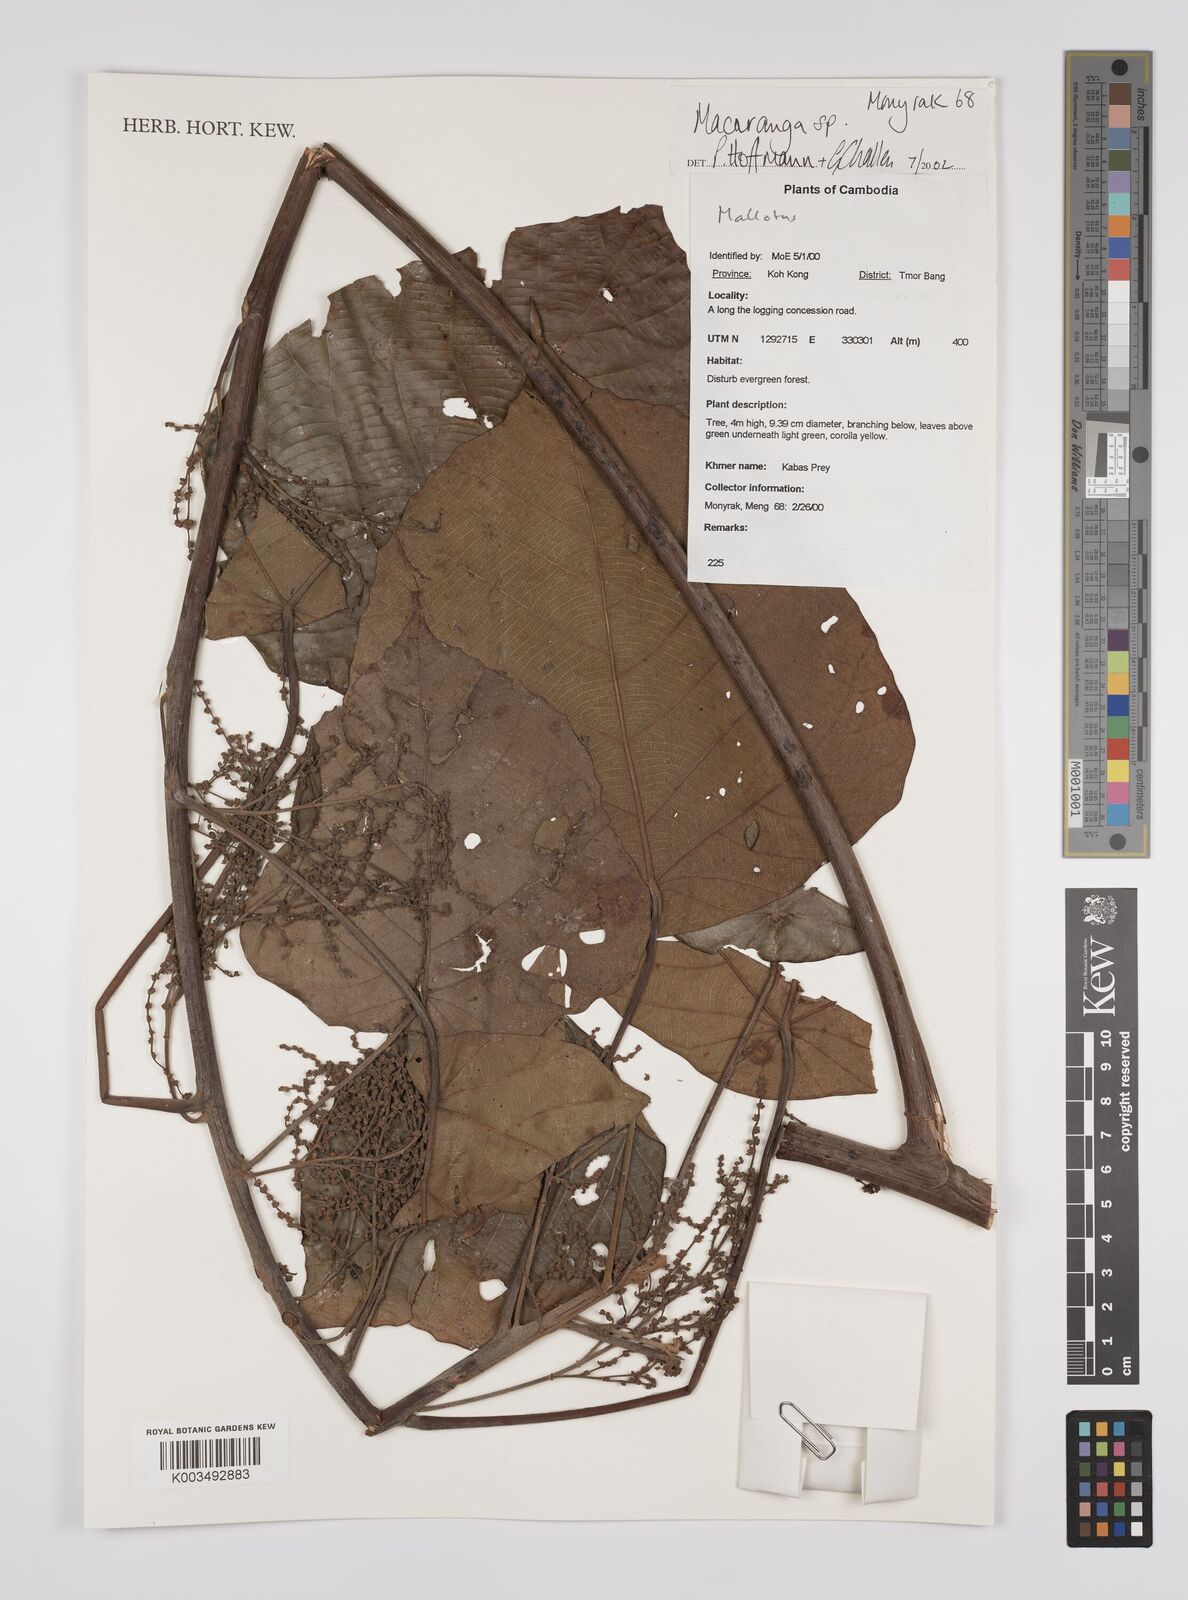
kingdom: Plantae
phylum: Tracheophyta
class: Magnoliopsida
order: Malpighiales
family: Euphorbiaceae
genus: Macaranga
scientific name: Macaranga
